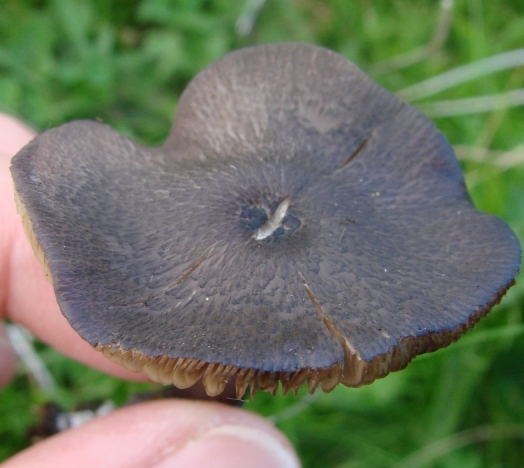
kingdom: Fungi
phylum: Basidiomycota
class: Agaricomycetes
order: Agaricales
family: Entolomataceae
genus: Entoloma
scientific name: Entoloma atrocoeruleum
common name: sortblå rødblad
